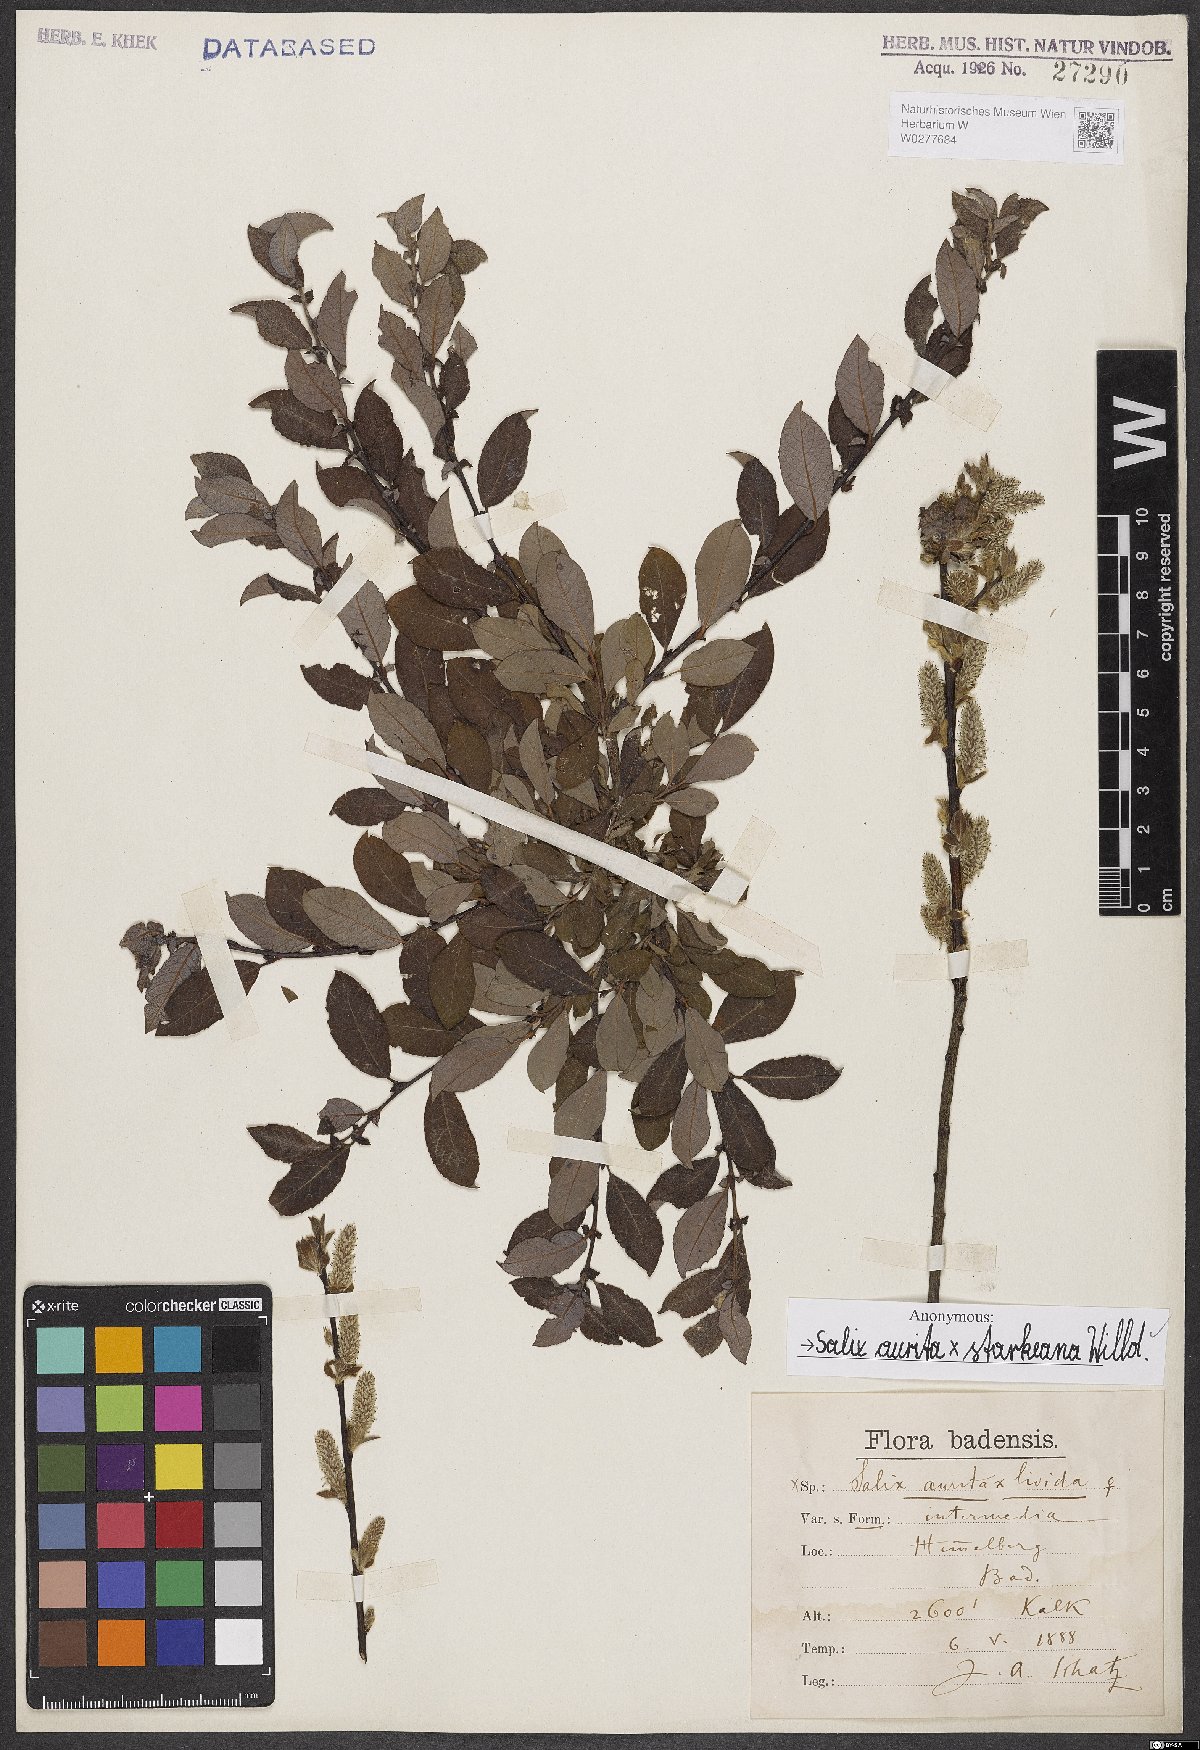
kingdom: Plantae
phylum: Tracheophyta
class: Magnoliopsida
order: Malpighiales
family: Salicaceae
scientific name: Salicaceae
